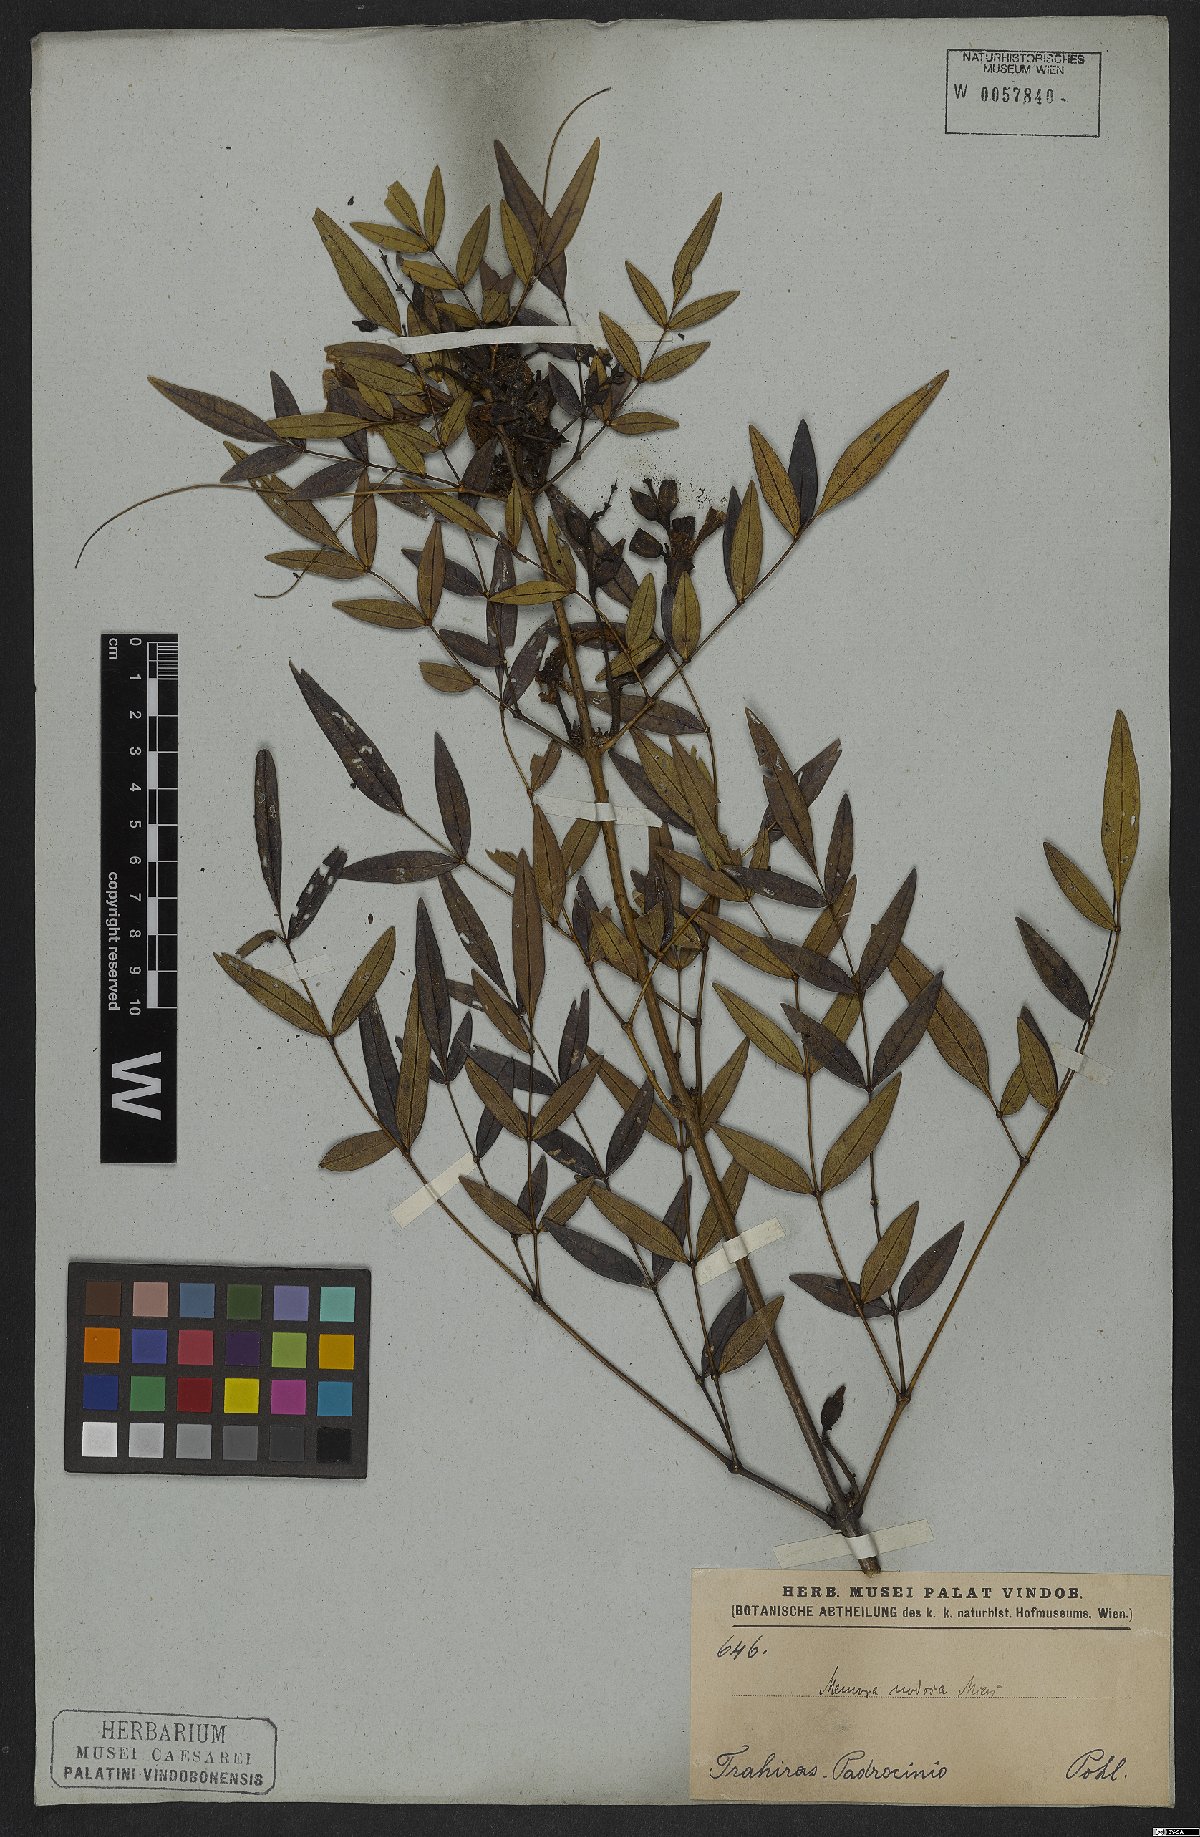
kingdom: Plantae
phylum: Tracheophyta
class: Magnoliopsida
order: Lamiales
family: Bignoniaceae
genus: Adenocalymma
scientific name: Adenocalymma nodosum
